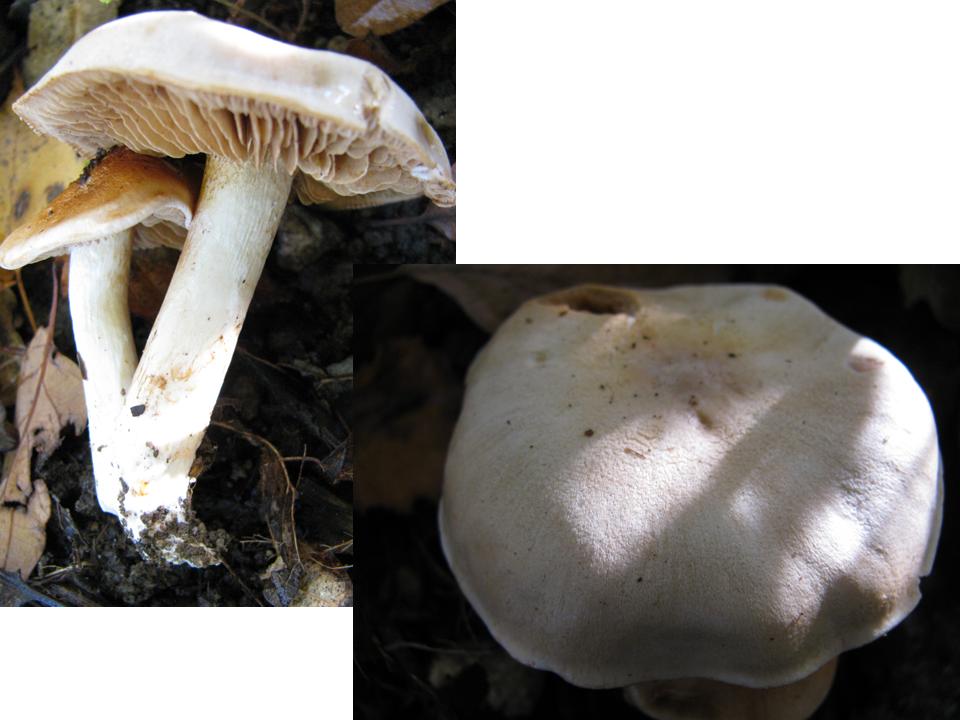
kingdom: Fungi
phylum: Basidiomycota
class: Agaricomycetes
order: Agaricales
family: Cortinariaceae
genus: Thaxterogaster
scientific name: Thaxterogaster leucoluteolus
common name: isabella slørhat
